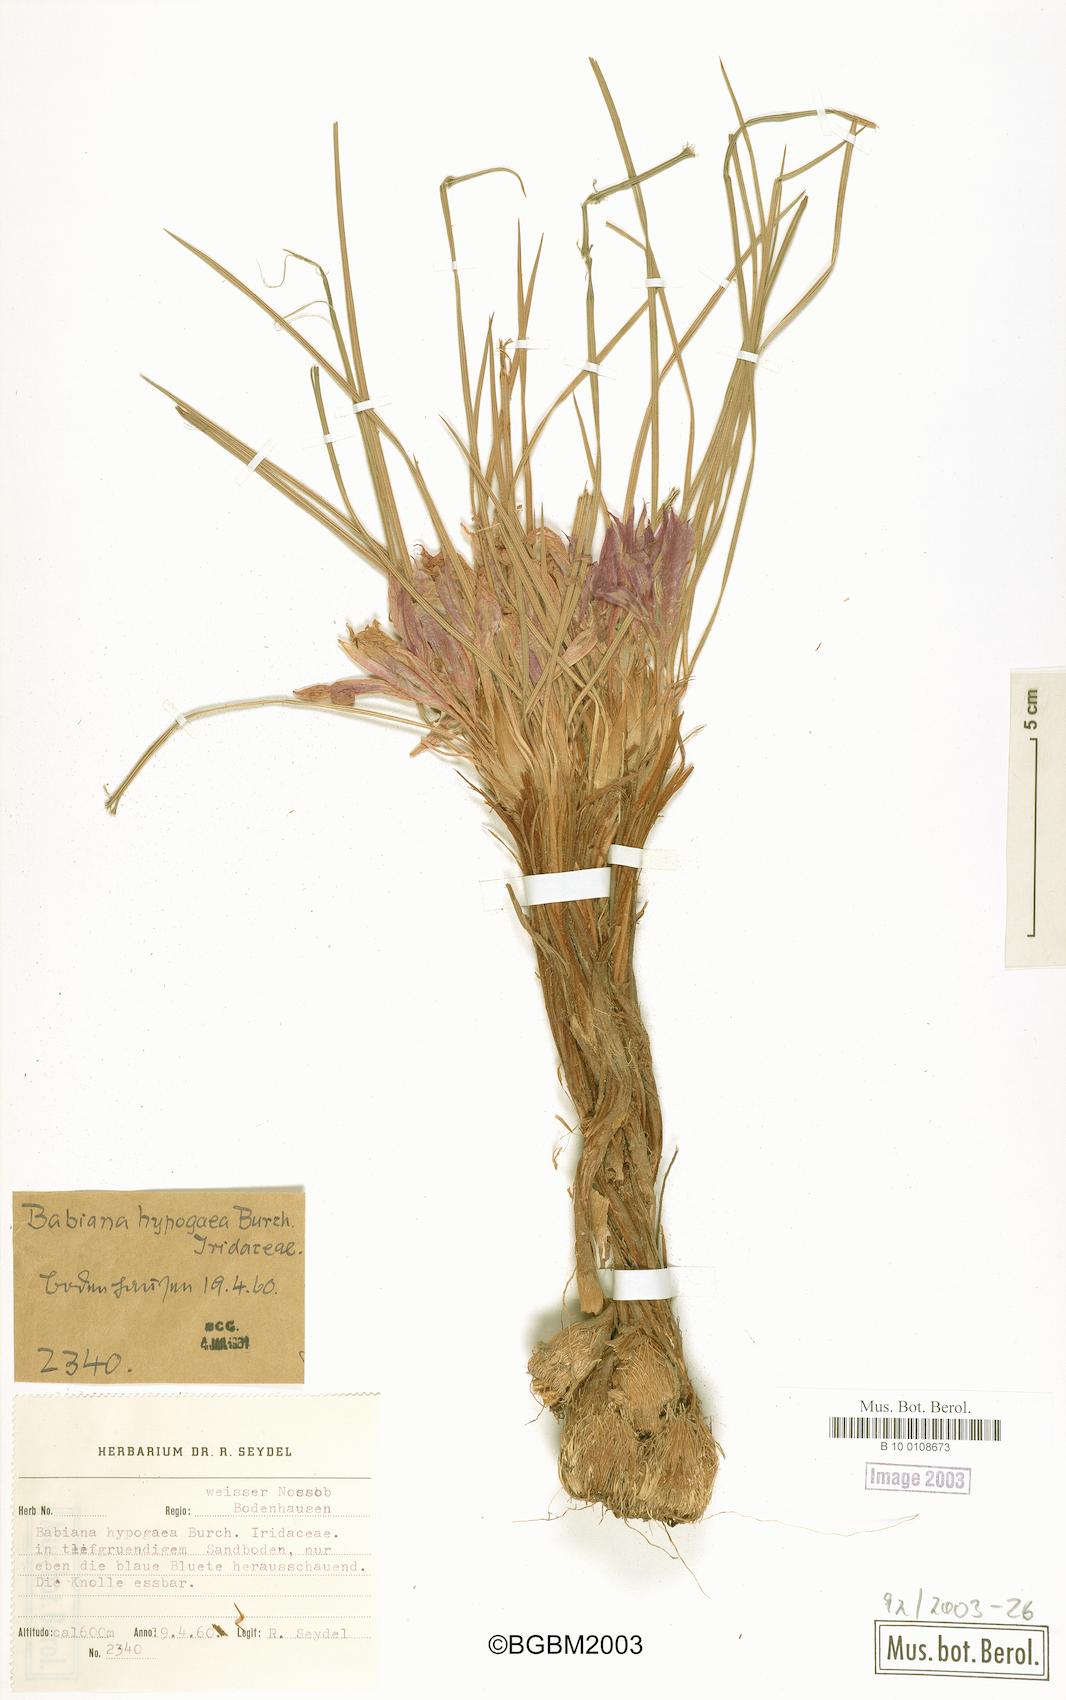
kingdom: Plantae
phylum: Tracheophyta
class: Liliopsida
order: Asparagales
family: Iridaceae
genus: Babiana
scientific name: Babiana hypogaea
